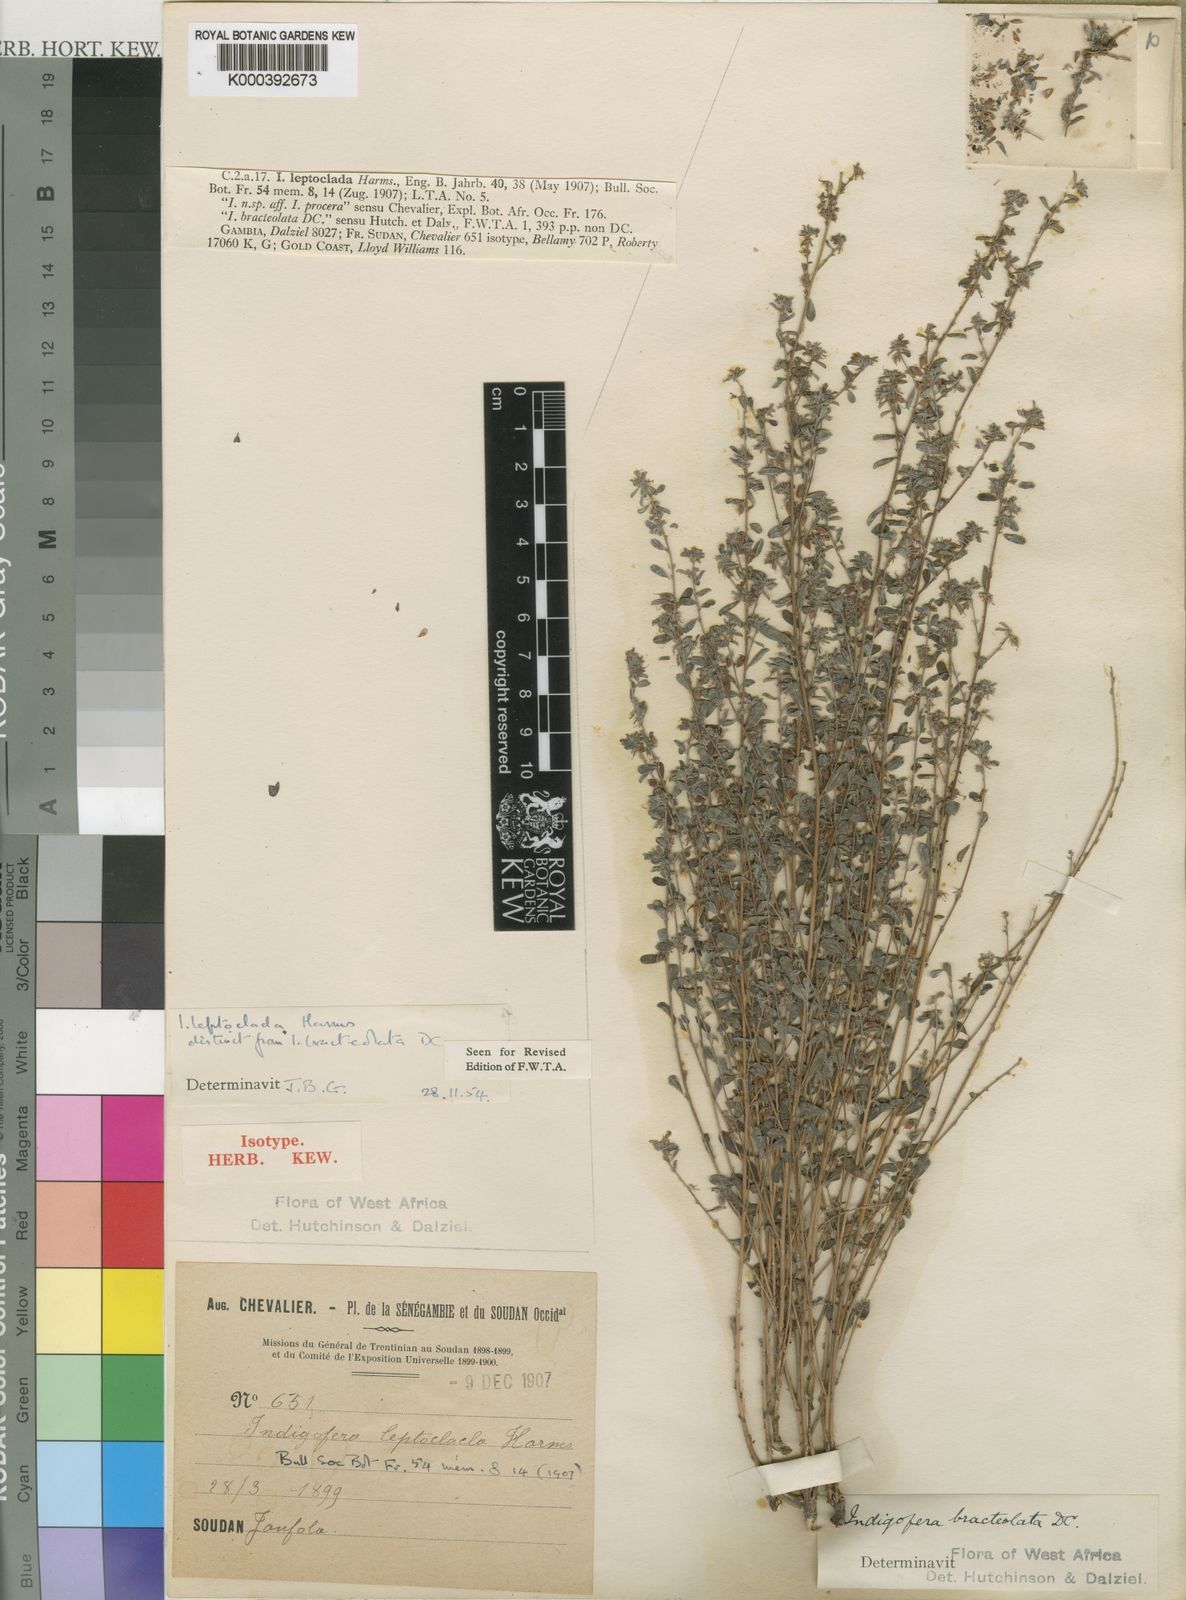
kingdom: Plantae
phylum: Tracheophyta
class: Magnoliopsida
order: Fabales
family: Fabaceae
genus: Indigofera
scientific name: Indigofera leptoclada
